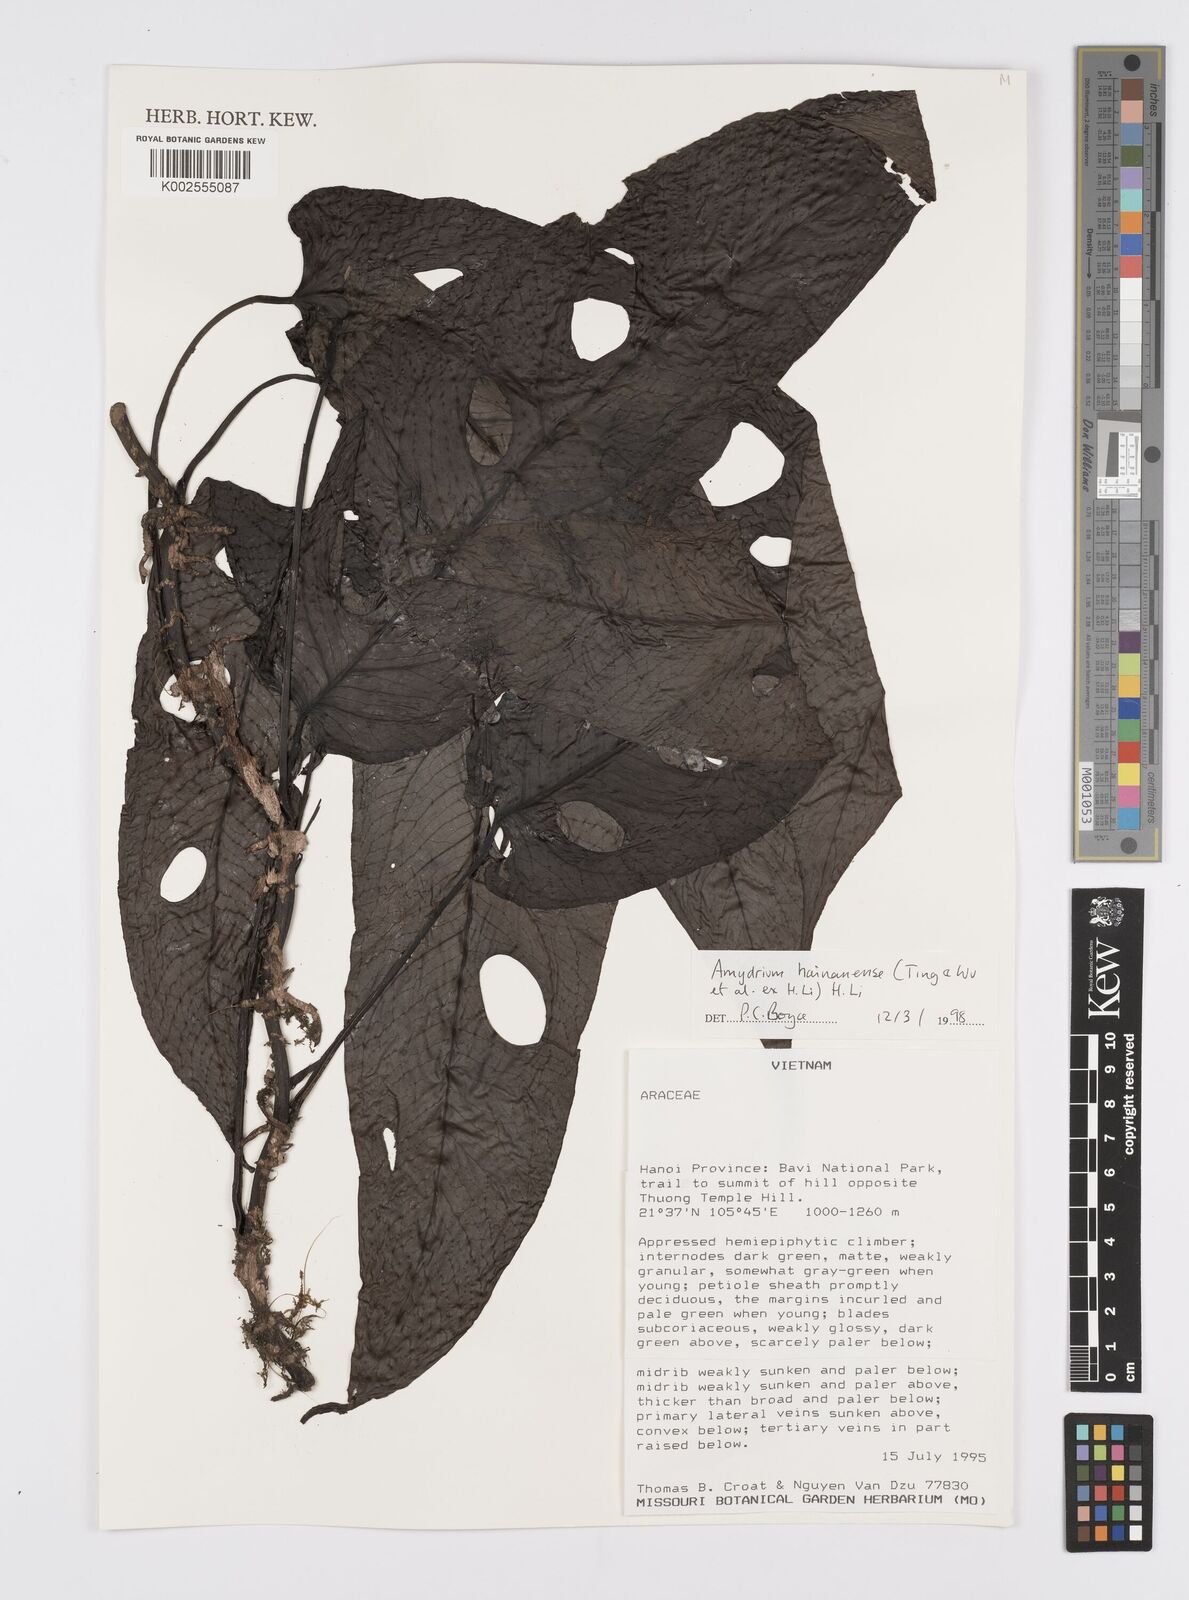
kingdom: Plantae
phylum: Tracheophyta
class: Liliopsida
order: Alismatales
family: Araceae
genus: Amydrium
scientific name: Amydrium hainanense
